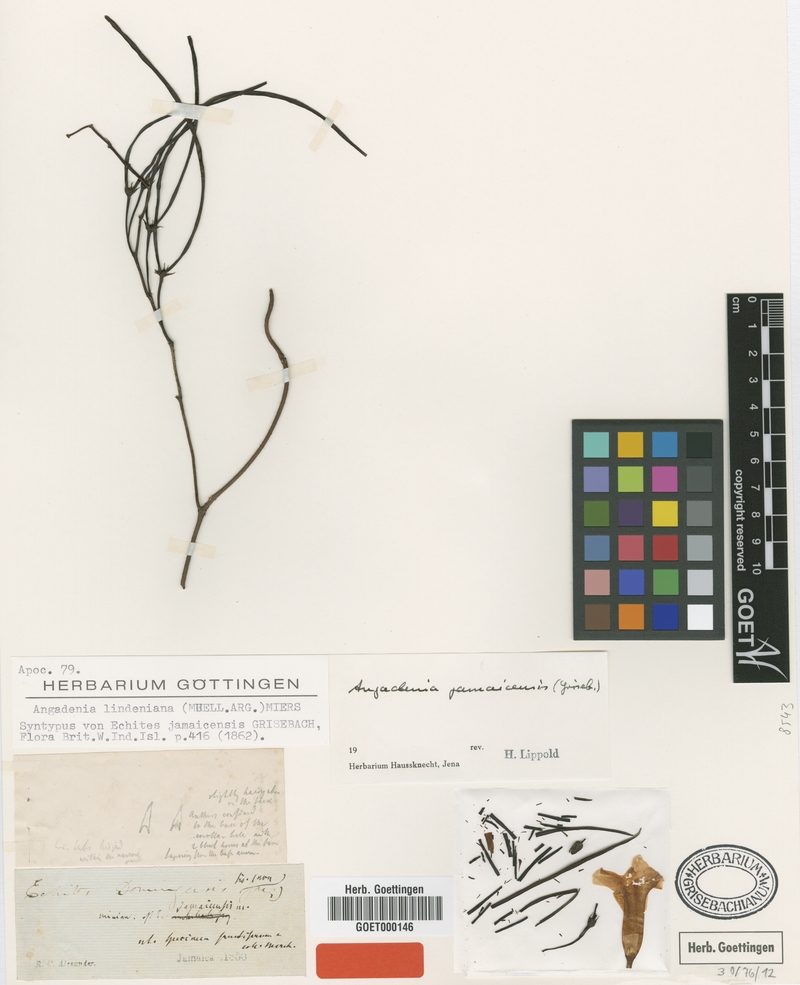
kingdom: Plantae
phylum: Tracheophyta
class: Magnoliopsida
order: Gentianales
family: Apocynaceae
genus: Angadenia
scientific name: Angadenia lindeniana
